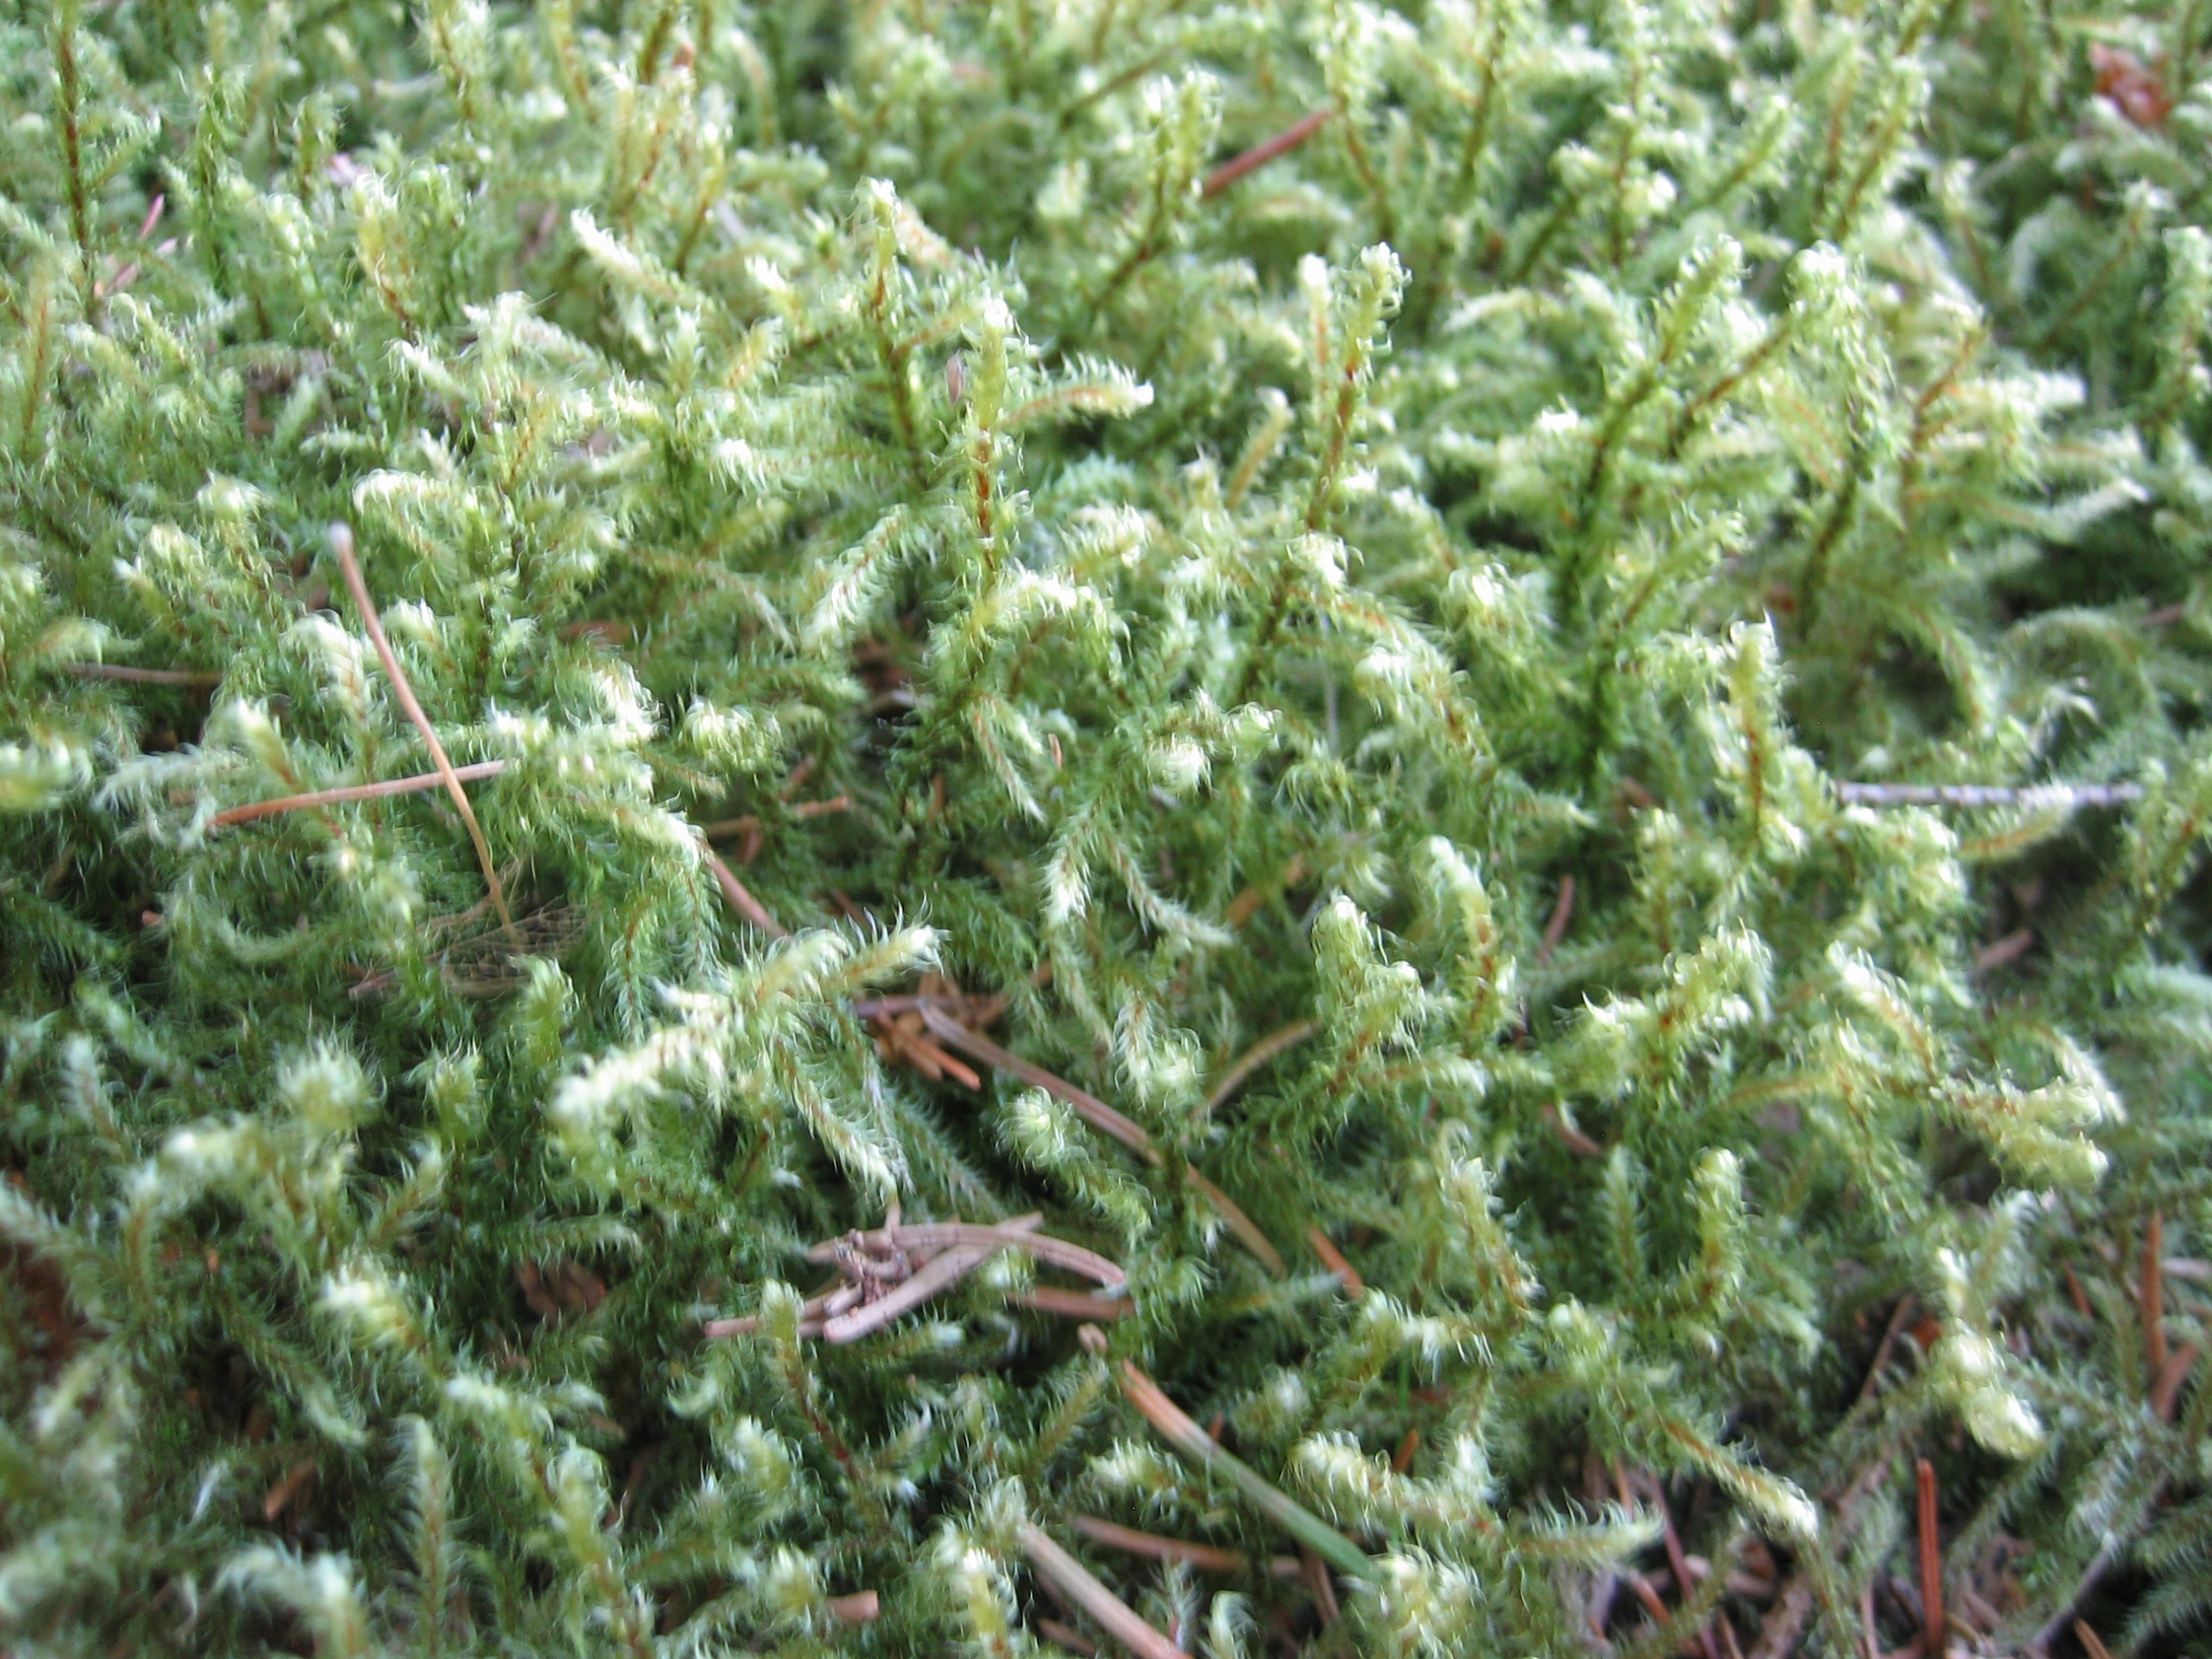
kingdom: Plantae
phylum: Bryophyta
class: Bryopsida
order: Hypnales
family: Hylocomiaceae
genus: Rhytidiadelphus
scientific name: Rhytidiadelphus loreus
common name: Ulvefod-kransemos
